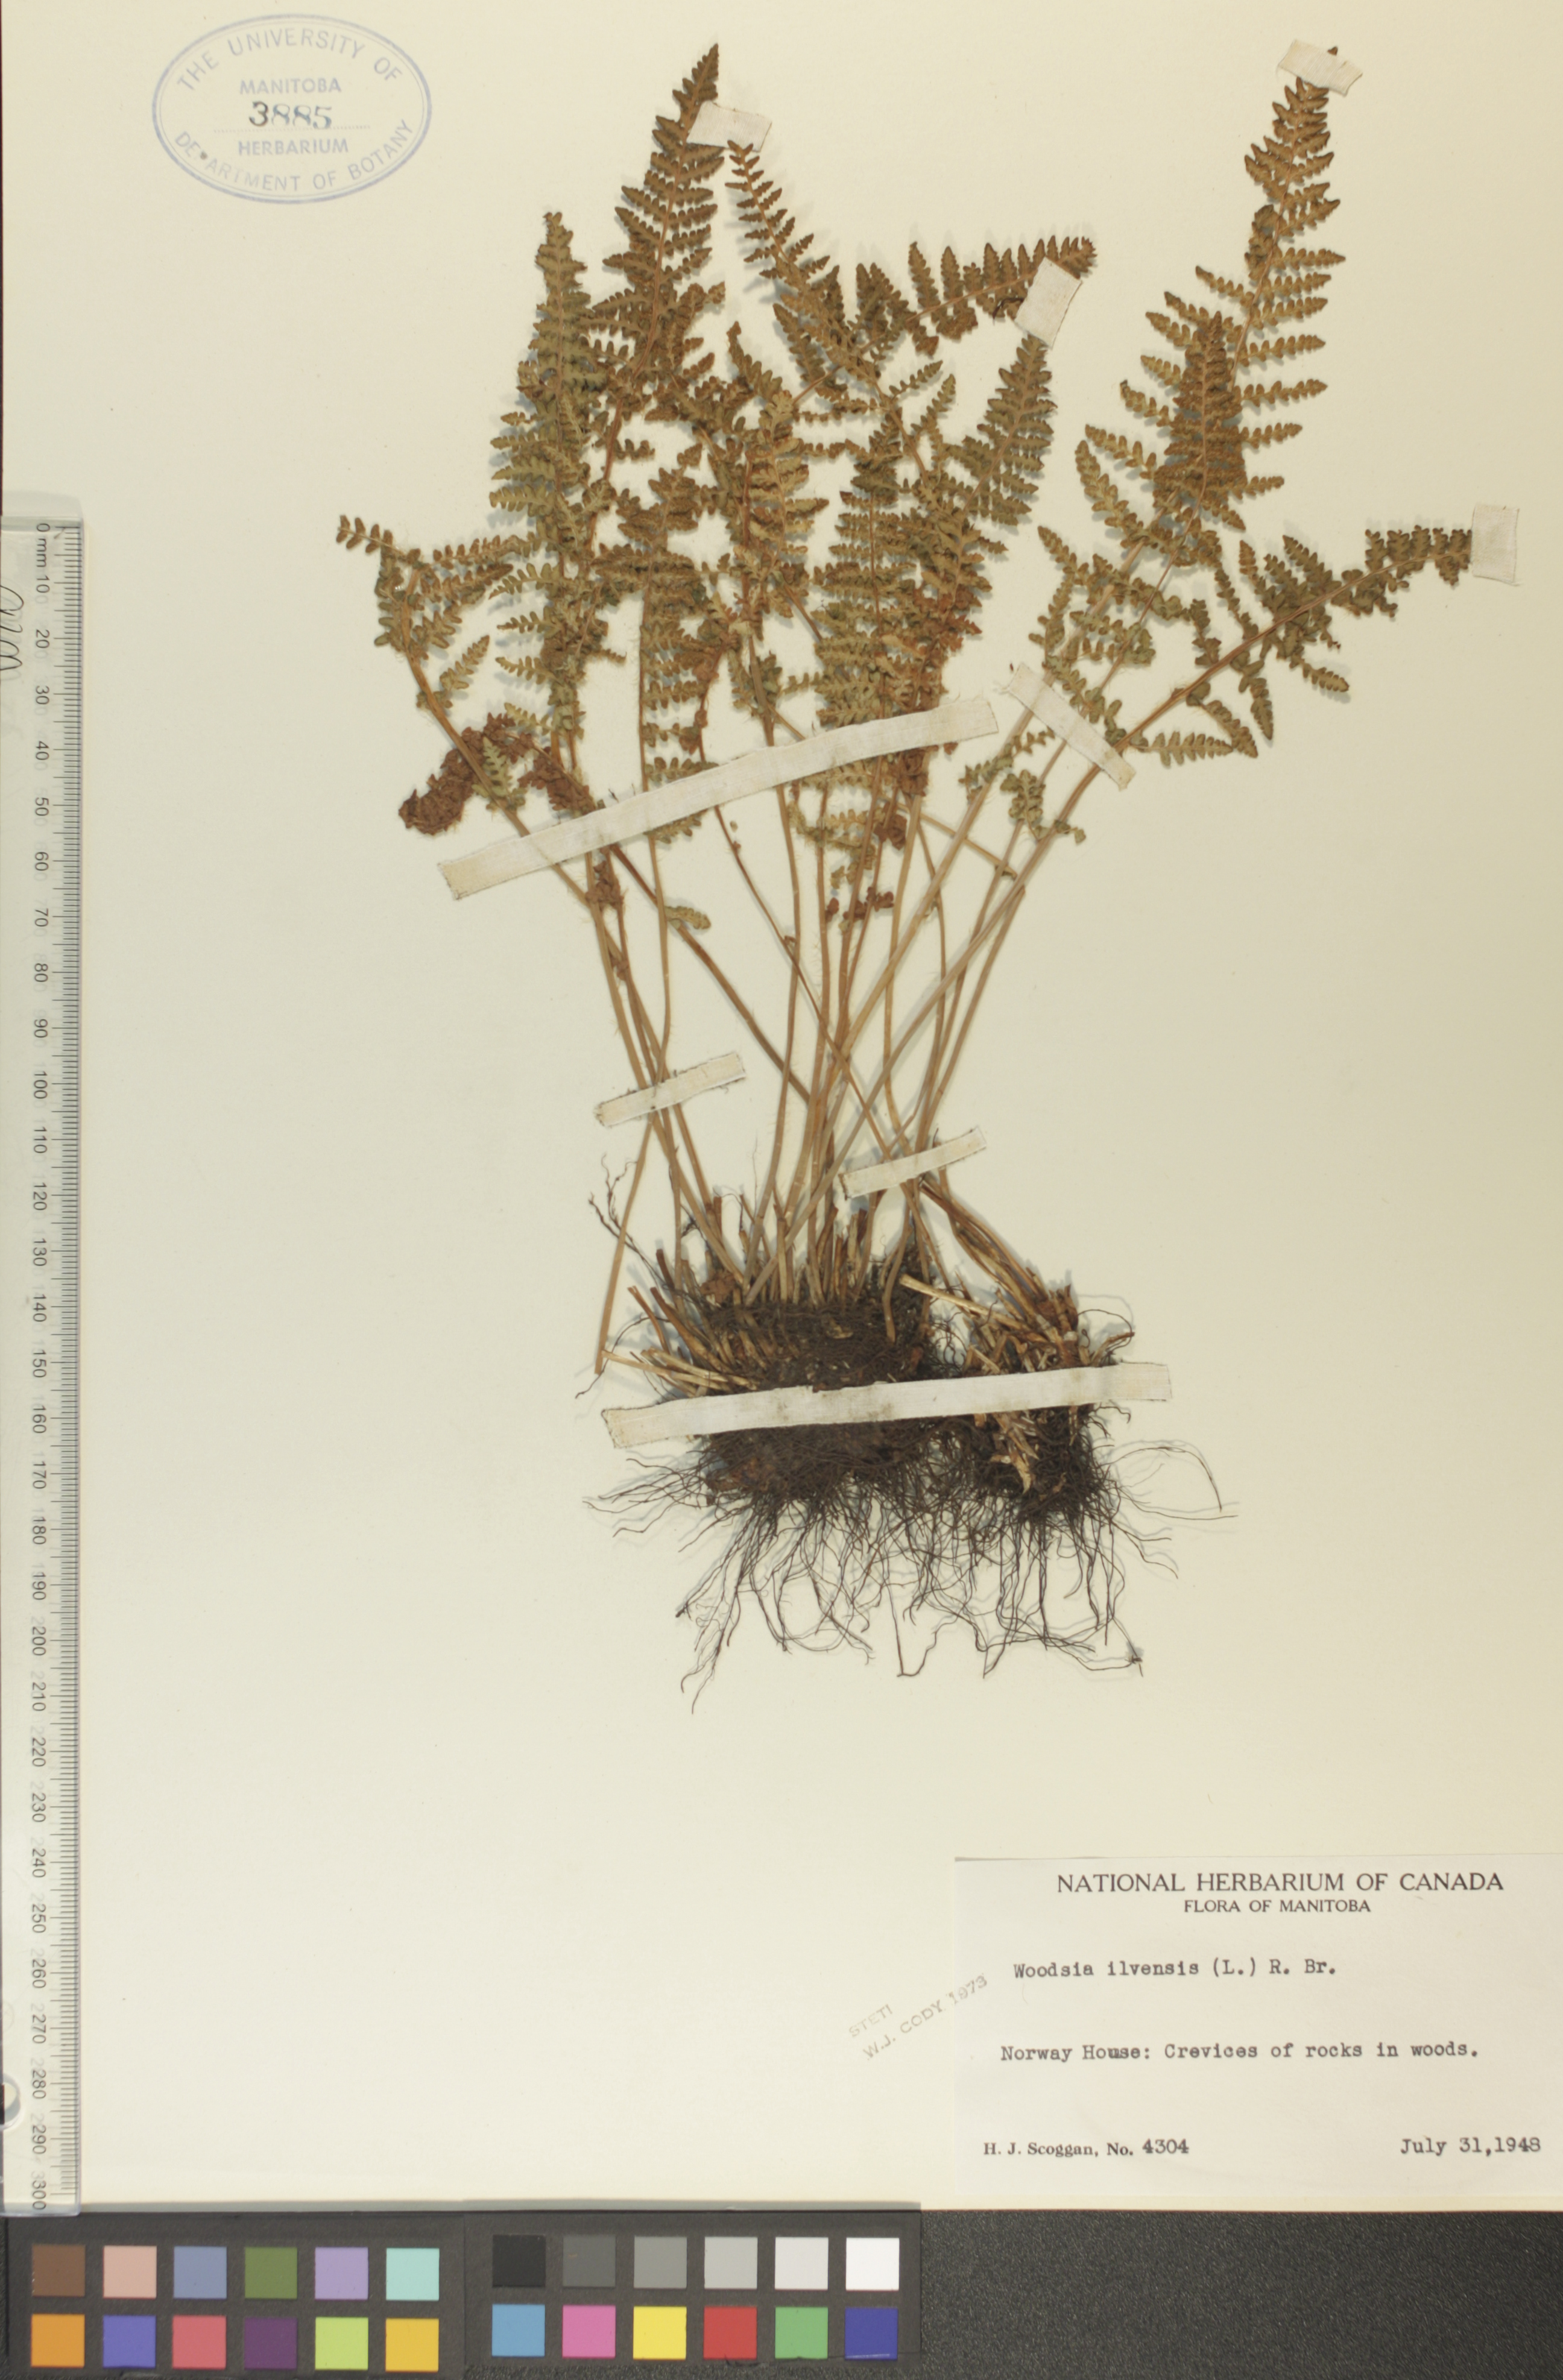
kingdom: Plantae
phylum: Tracheophyta
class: Polypodiopsida
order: Polypodiales
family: Woodsiaceae
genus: Woodsia
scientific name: Woodsia ilvensis
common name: Fragrant woodsia
